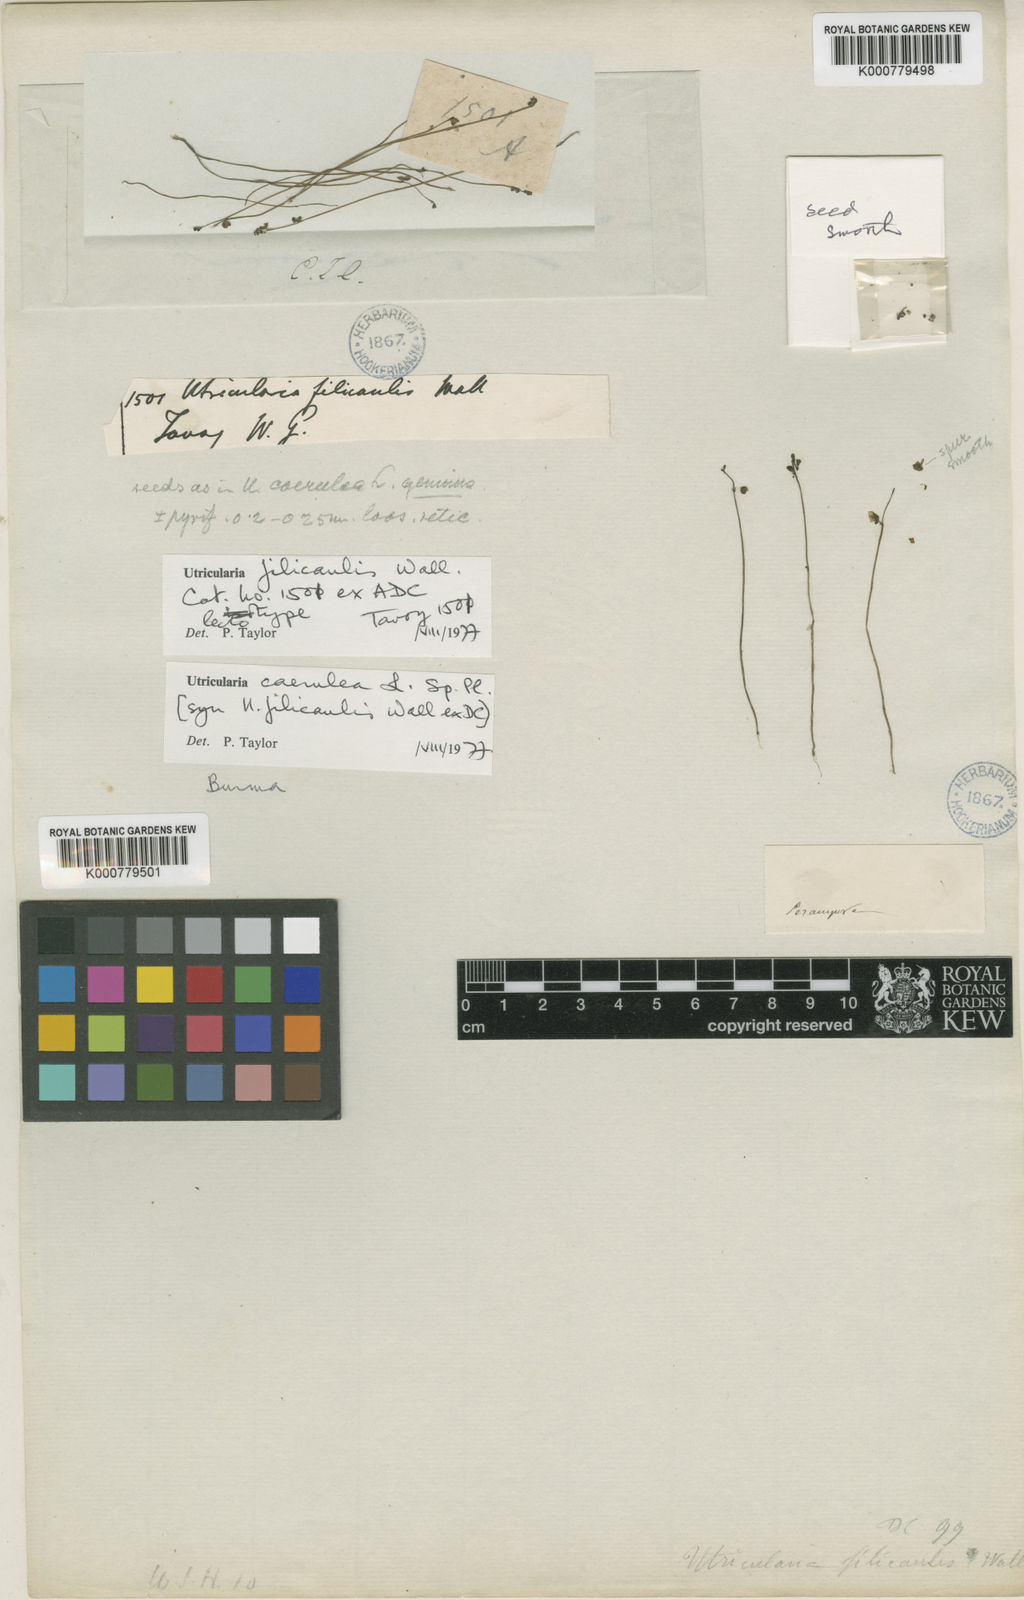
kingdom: Plantae
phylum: Tracheophyta
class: Magnoliopsida
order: Lamiales
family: Lentibulariaceae
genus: Utricularia
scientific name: Utricularia caerulea
